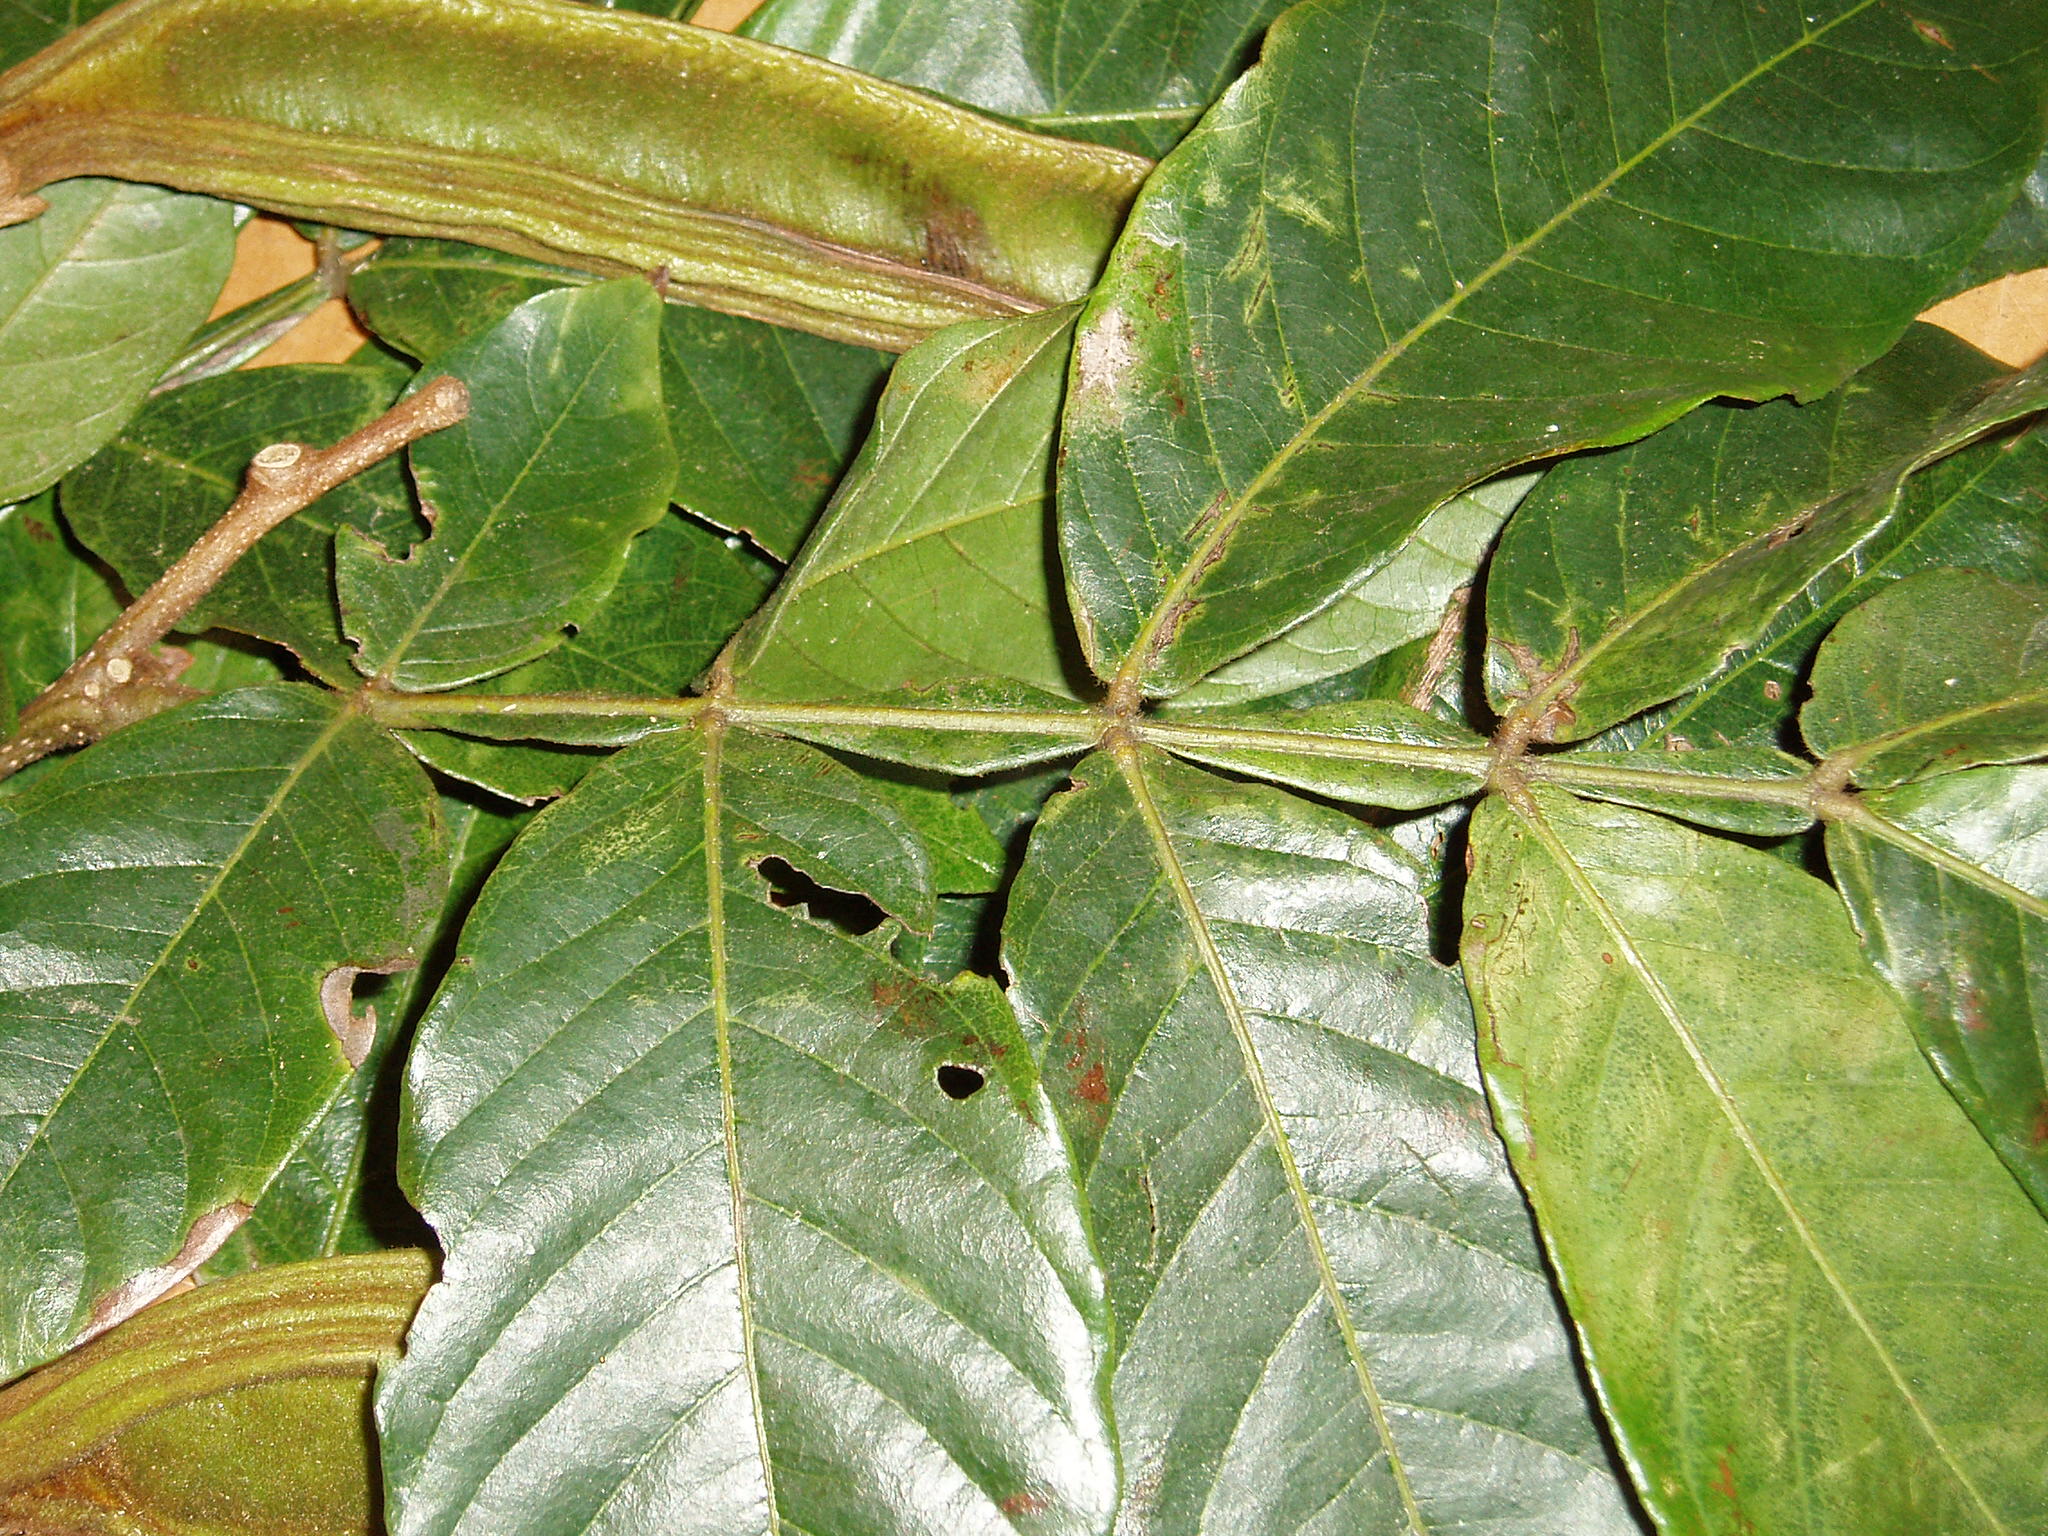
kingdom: Plantae
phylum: Tracheophyta
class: Magnoliopsida
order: Fabales
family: Fabaceae
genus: Inga
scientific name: Inga edulis
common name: Ice cream bean
